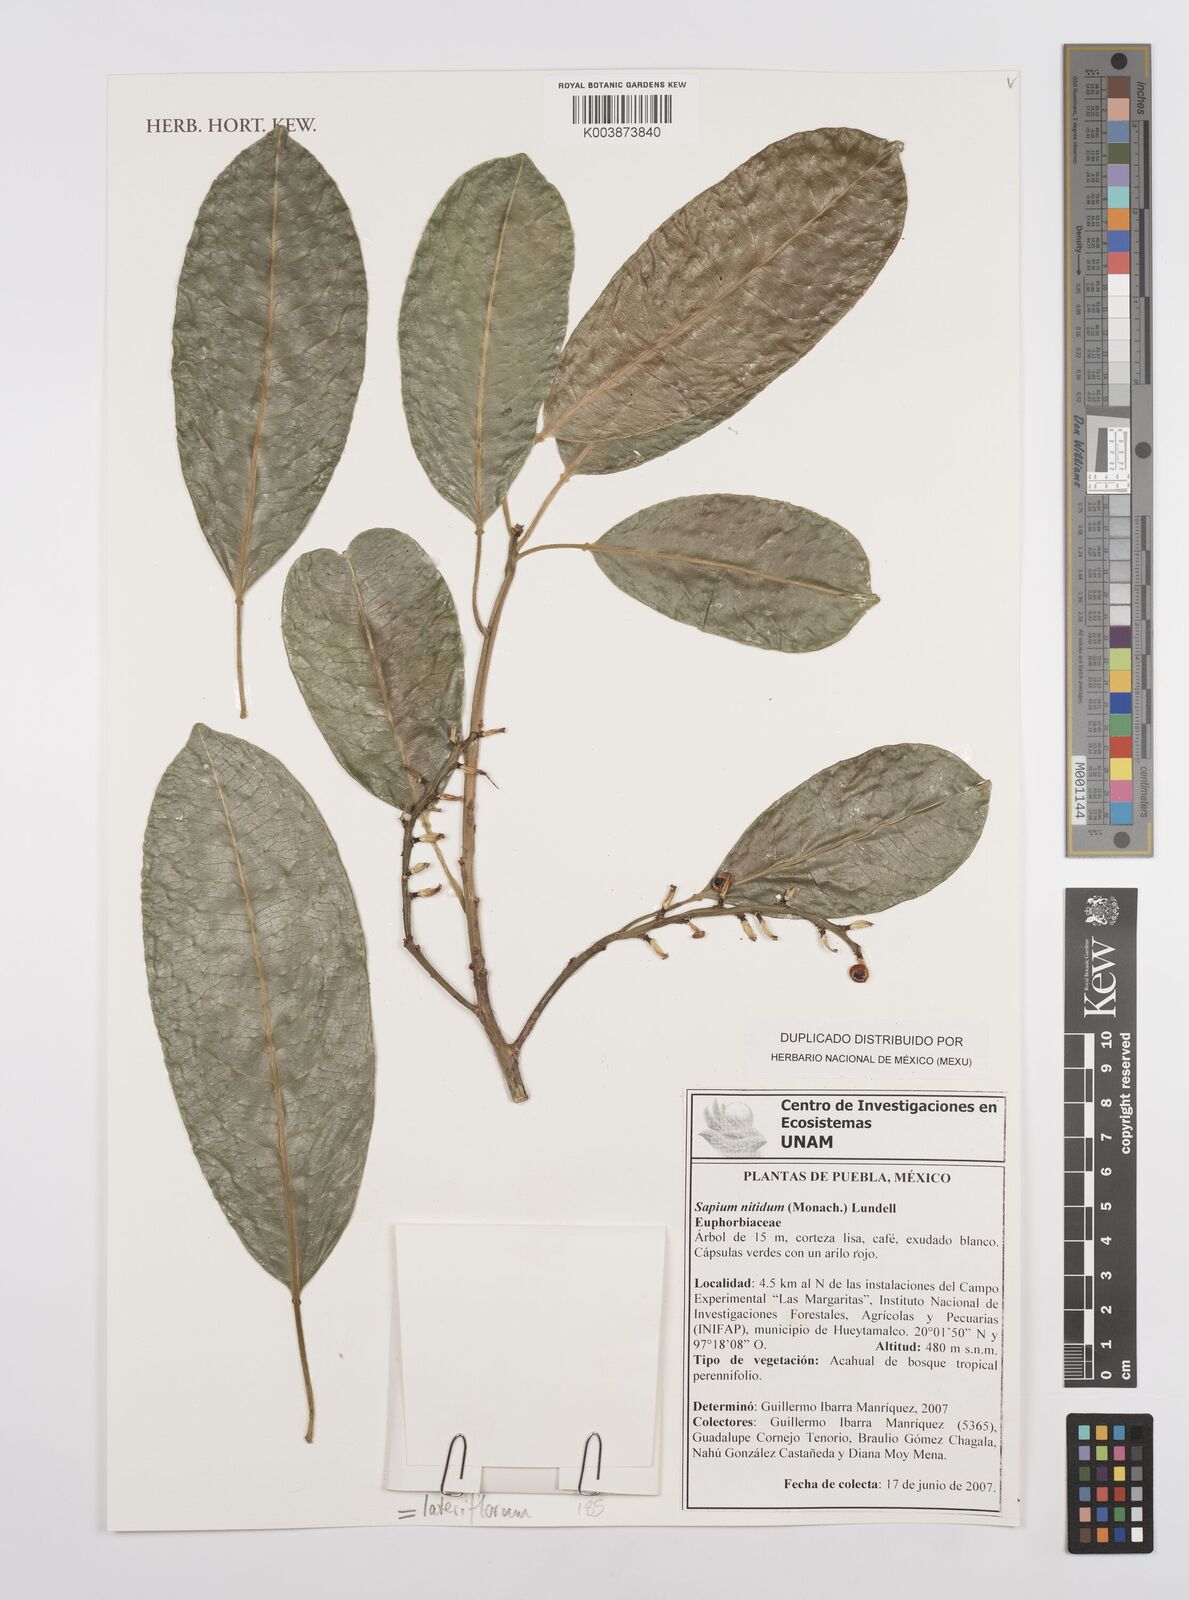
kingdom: Plantae
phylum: Tracheophyta
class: Magnoliopsida
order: Malpighiales
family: Euphorbiaceae
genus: Sapium
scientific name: Sapium lateriflorum
